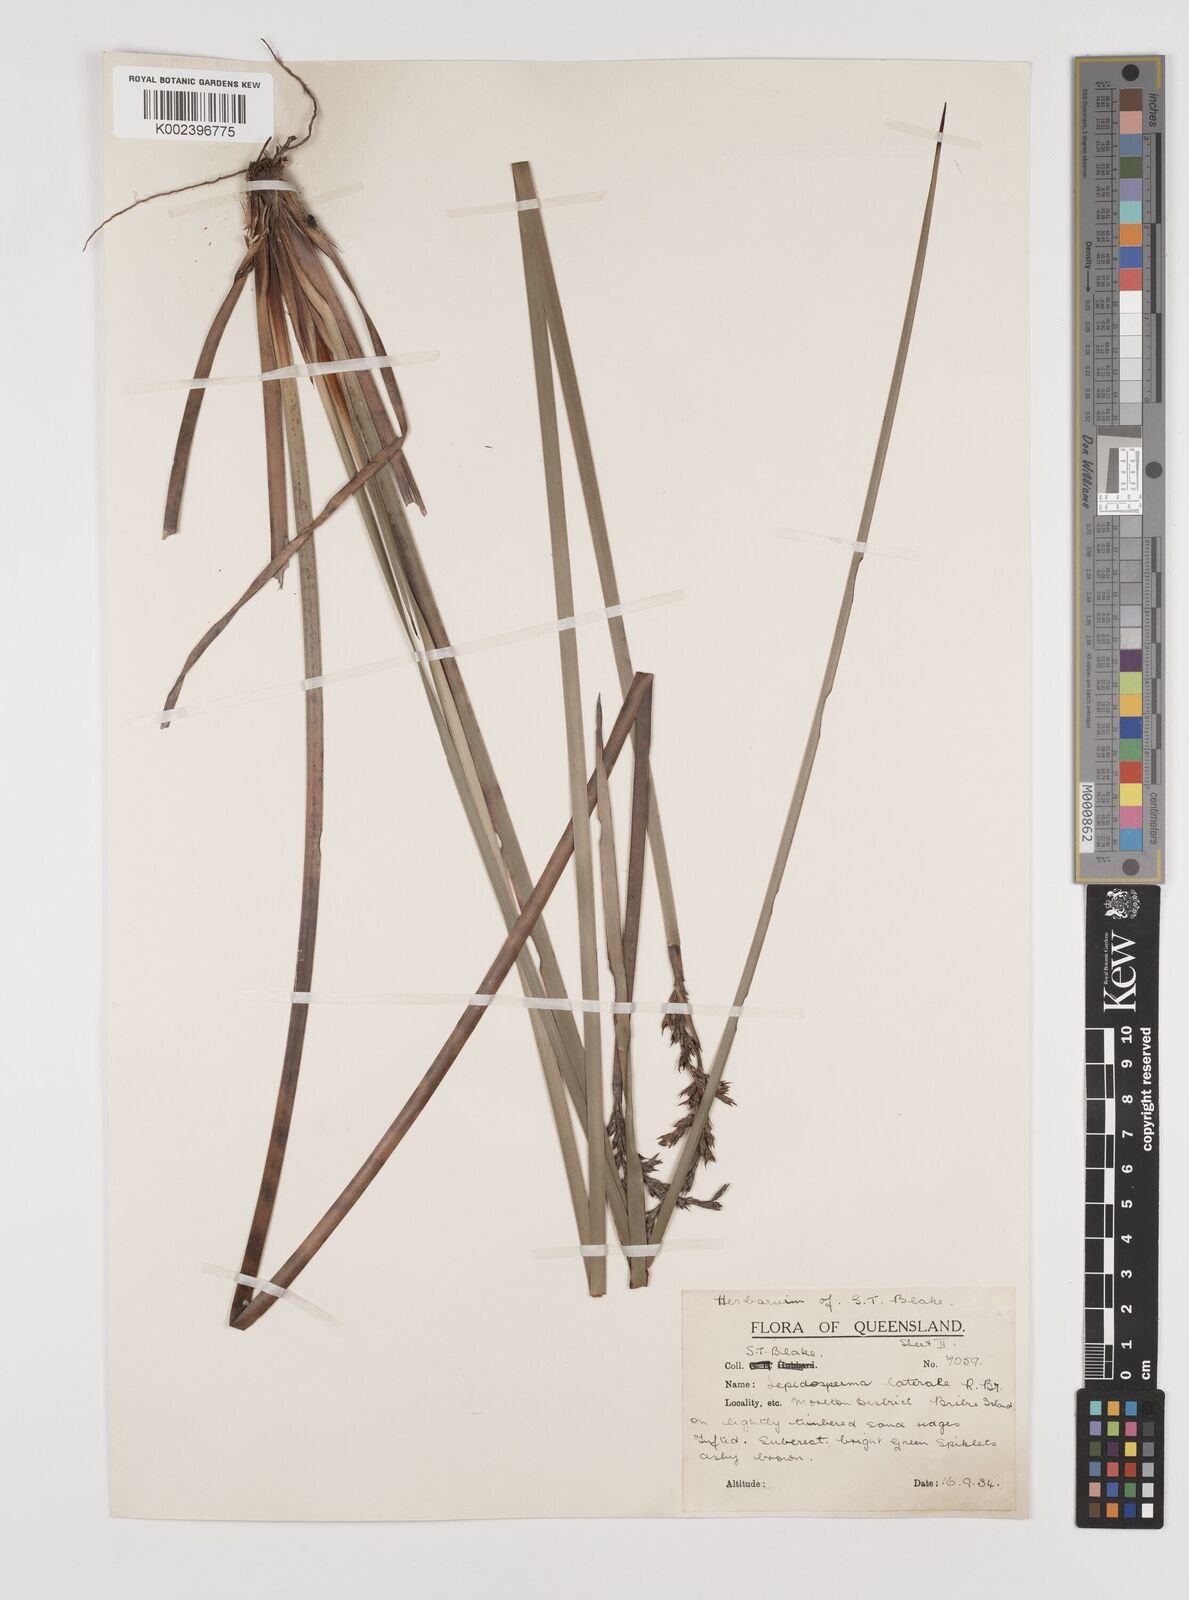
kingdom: Plantae
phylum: Tracheophyta
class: Liliopsida
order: Poales
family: Cyperaceae
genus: Lepidosperma
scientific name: Lepidosperma laterale
